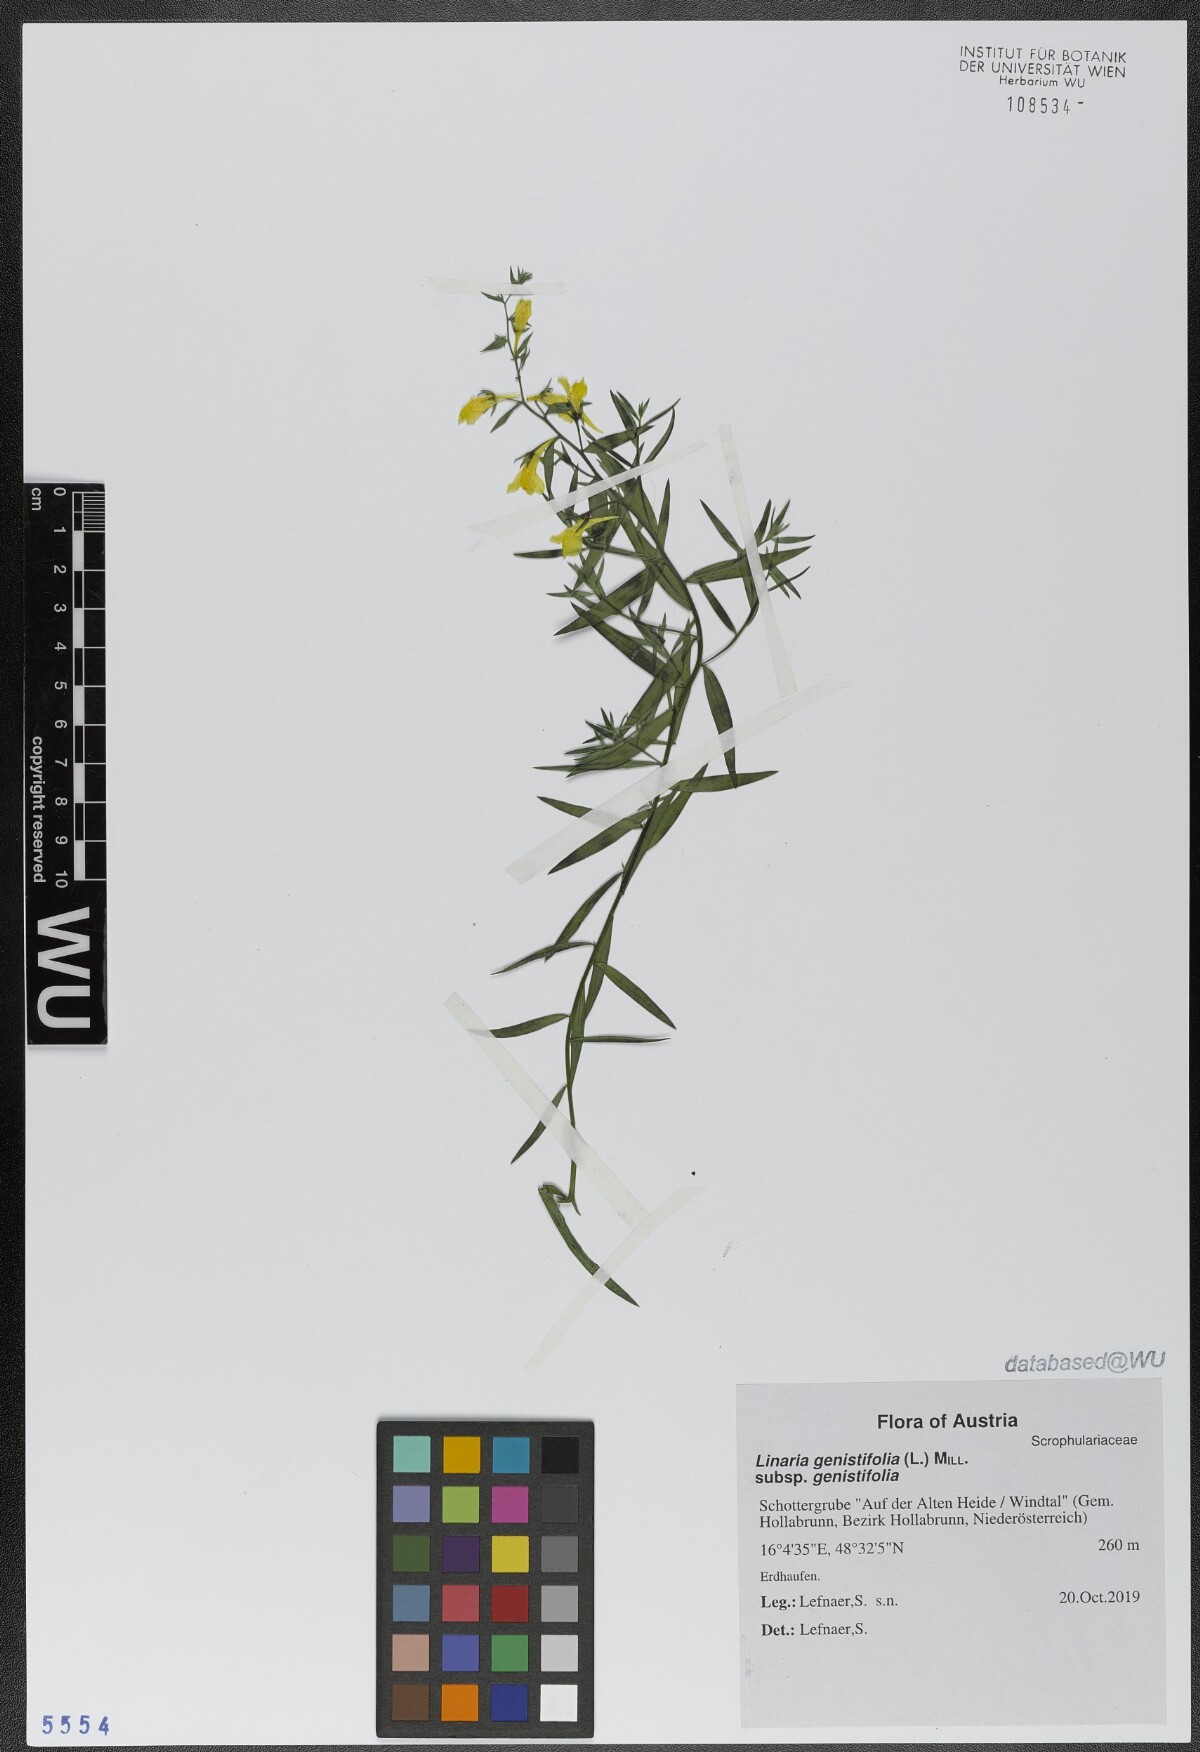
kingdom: Plantae
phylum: Tracheophyta
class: Magnoliopsida
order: Lamiales
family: Plantaginaceae
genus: Linaria
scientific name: Linaria genistifolia
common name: Broomleaf toadflax
